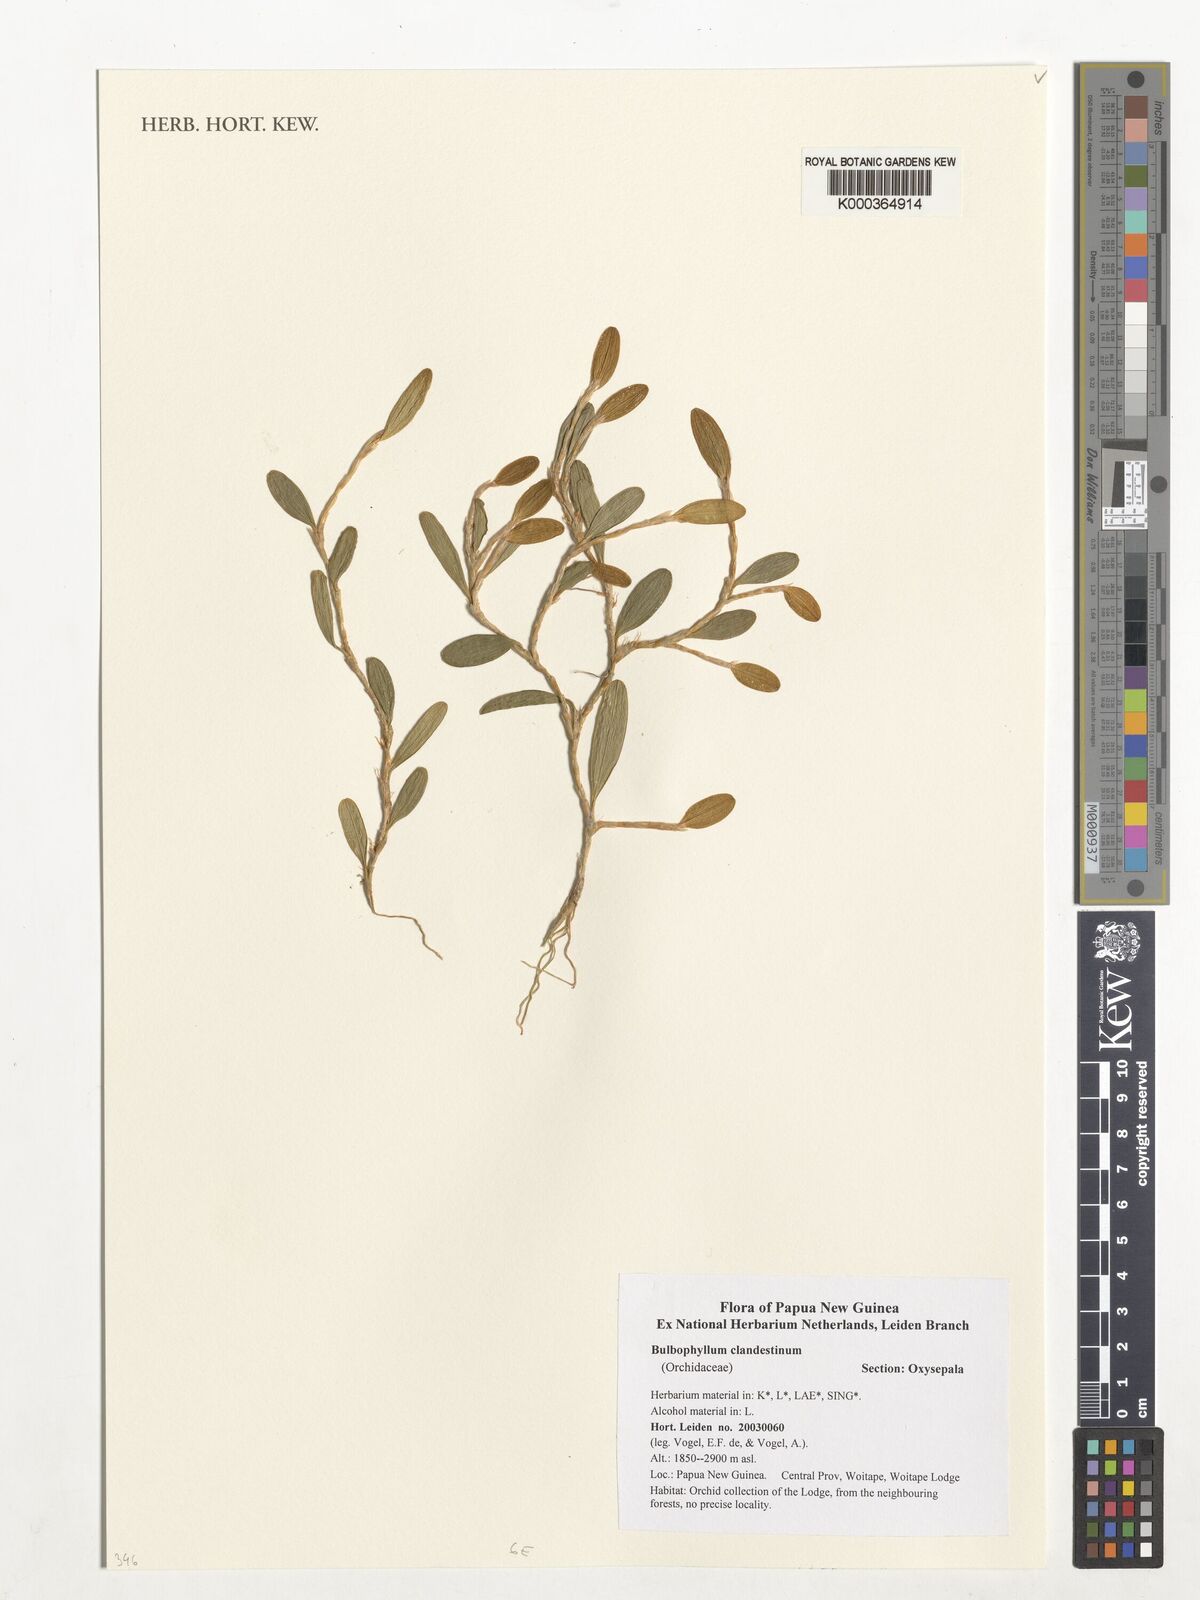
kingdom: Plantae
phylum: Tracheophyta
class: Liliopsida
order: Asparagales
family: Orchidaceae
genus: Bulbophyllum
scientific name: Bulbophyllum clandestinum
